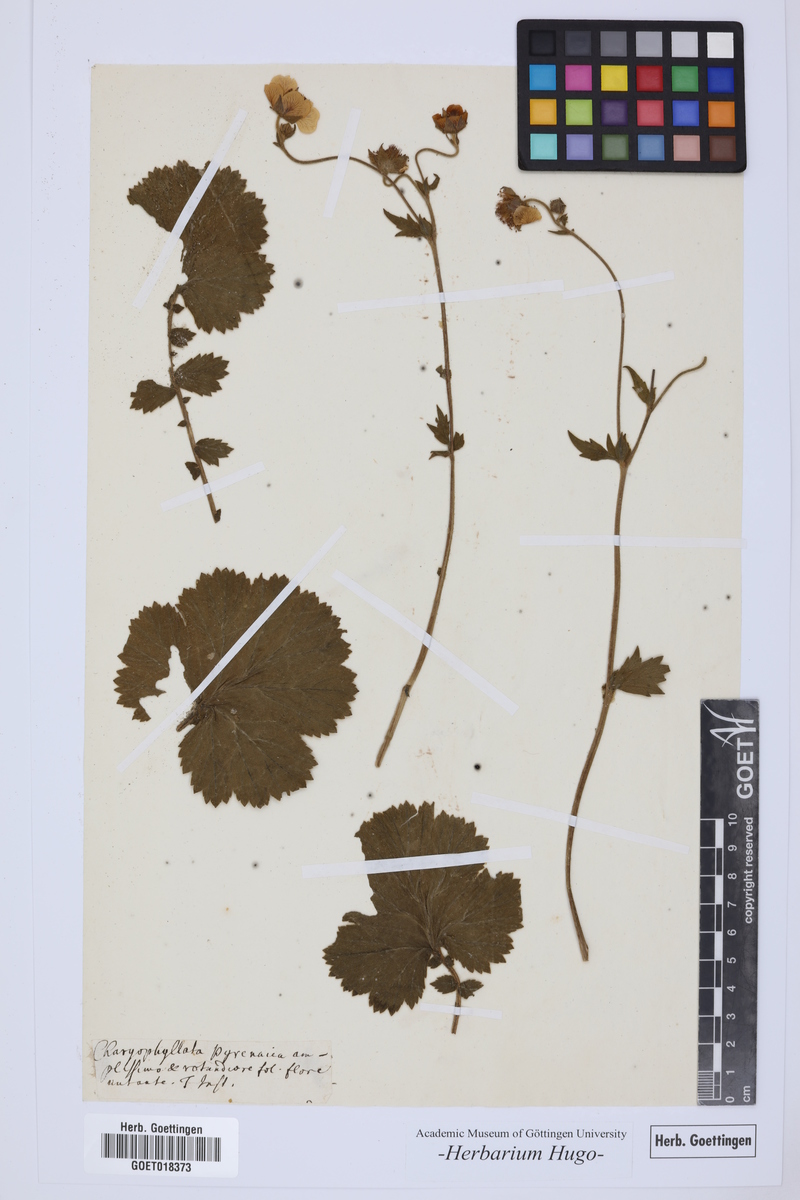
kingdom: Plantae
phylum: Tracheophyta
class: Magnoliopsida
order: Rosales
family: Rosaceae
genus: Caryophyllata
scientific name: Caryophyllata
